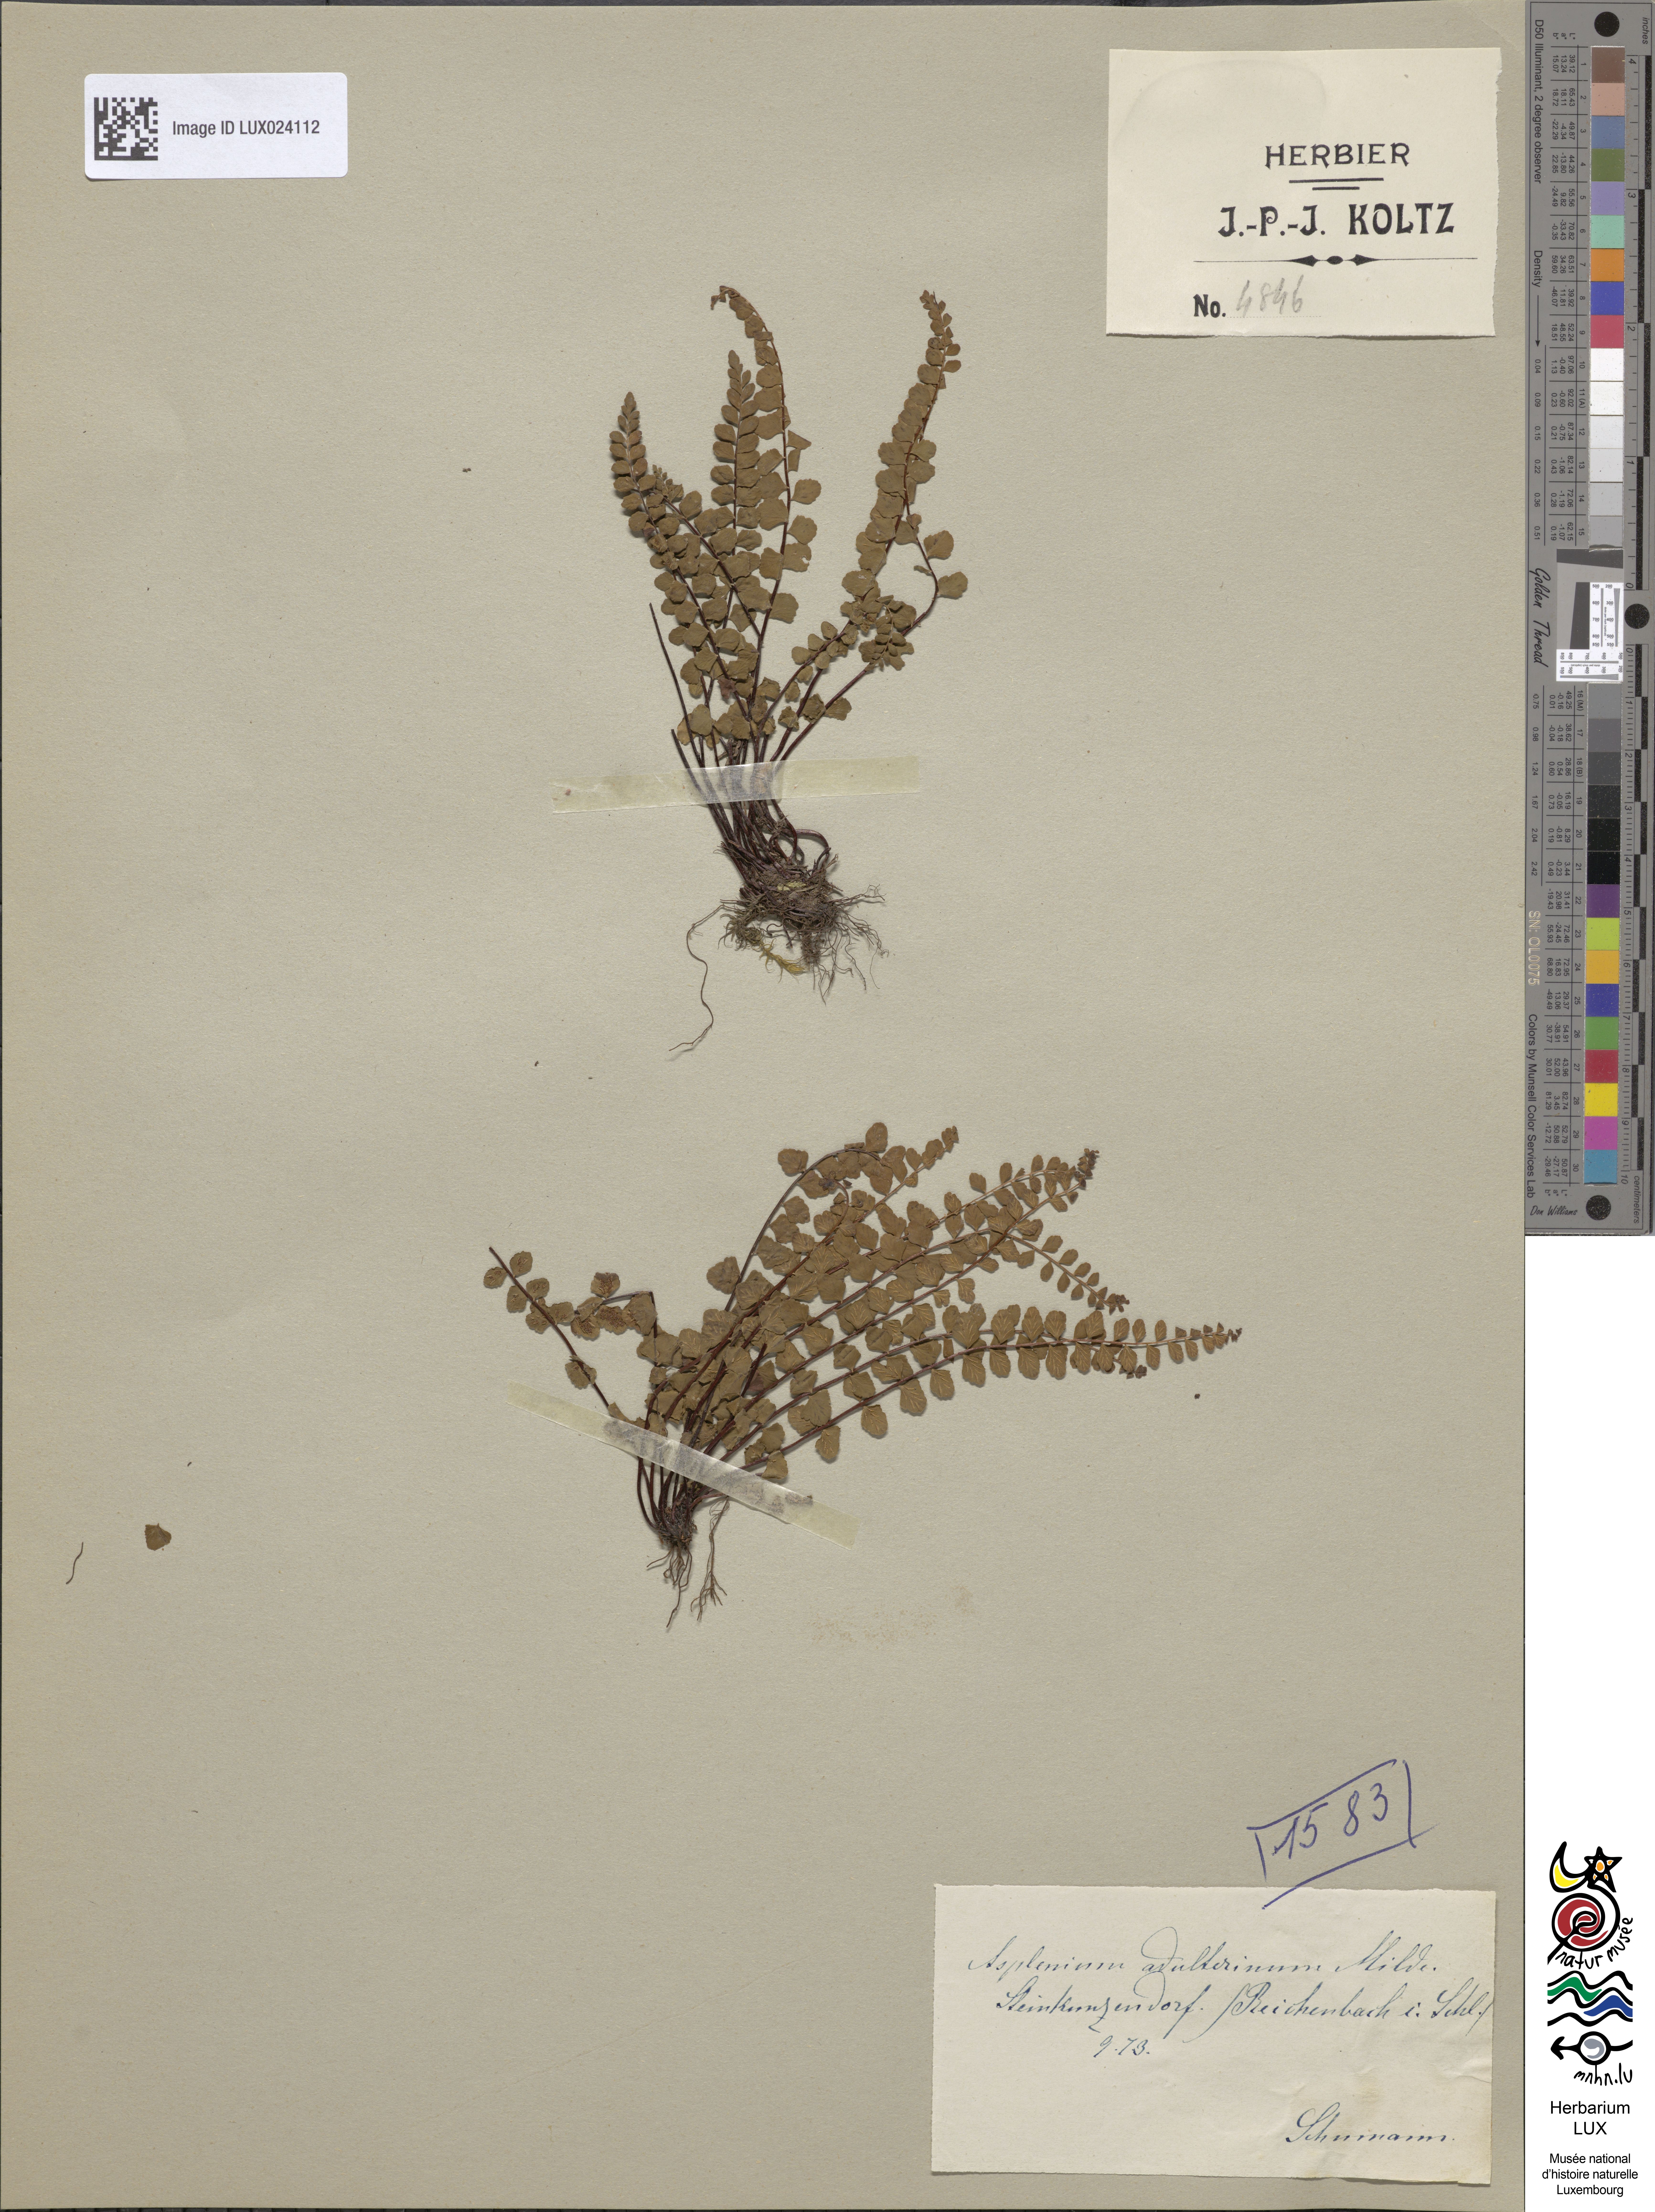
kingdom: Plantae
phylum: Tracheophyta
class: Polypodiopsida
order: Polypodiales
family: Aspleniaceae
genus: Asplenium
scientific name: Asplenium adulterinum
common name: Adulterated spleenwort
